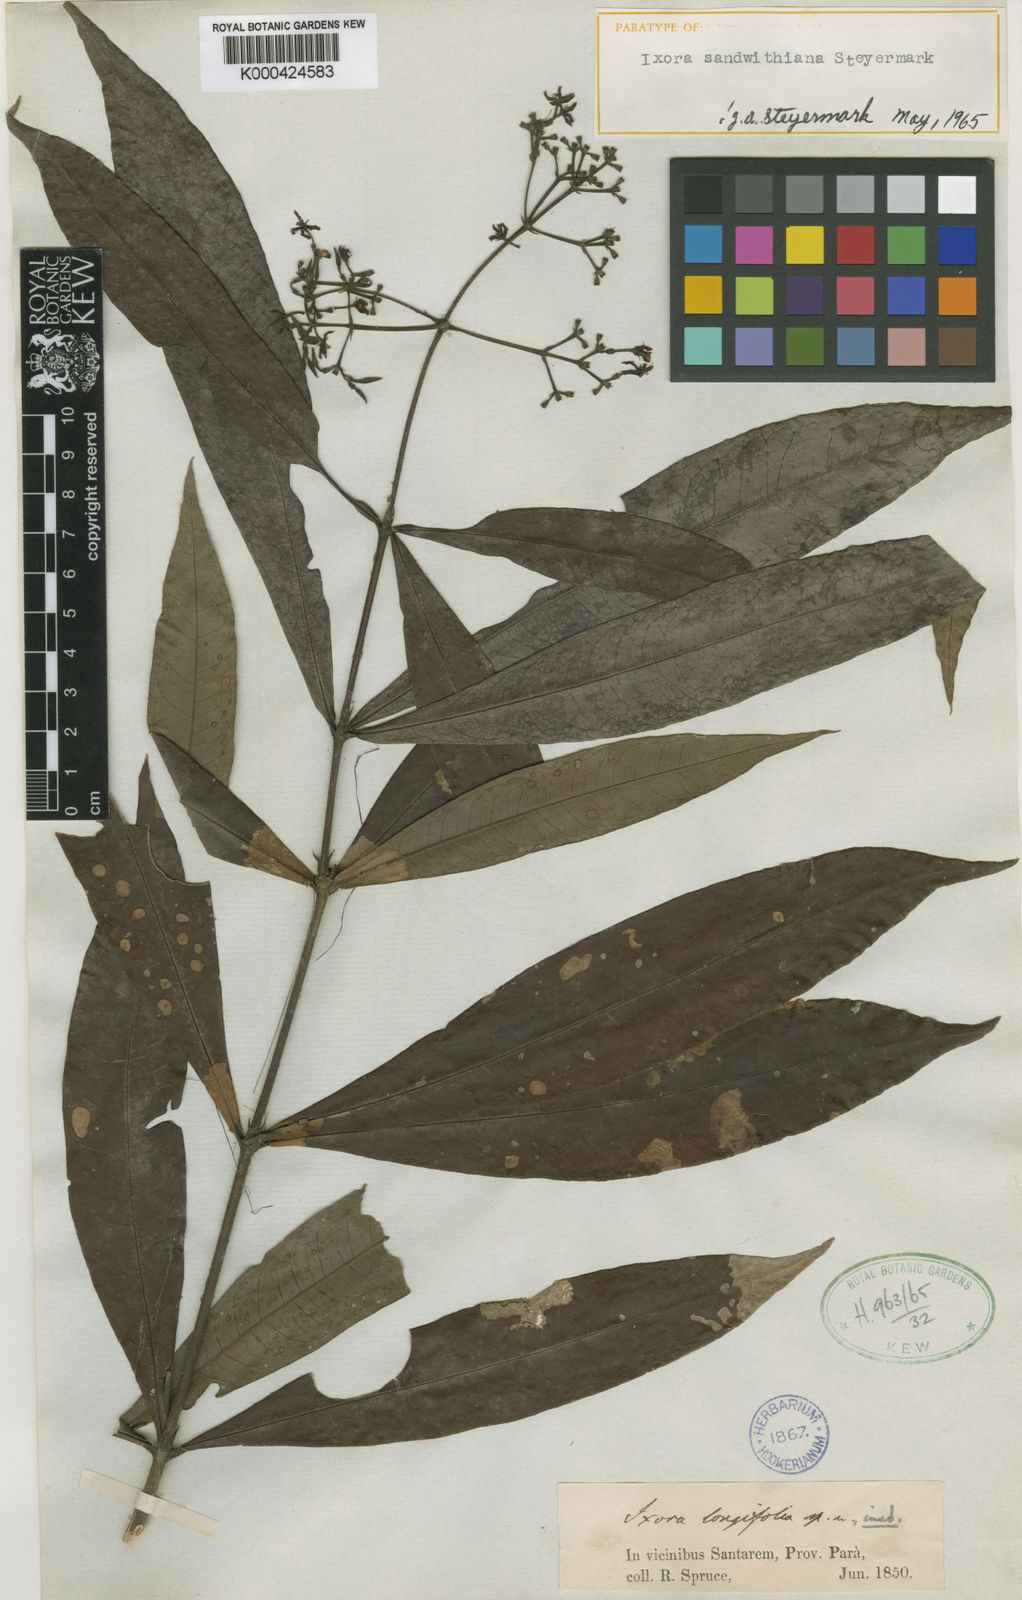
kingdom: Plantae
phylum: Tracheophyta
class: Magnoliopsida
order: Gentianales
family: Rubiaceae
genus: Ixora
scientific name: Ixora sandwithiana
